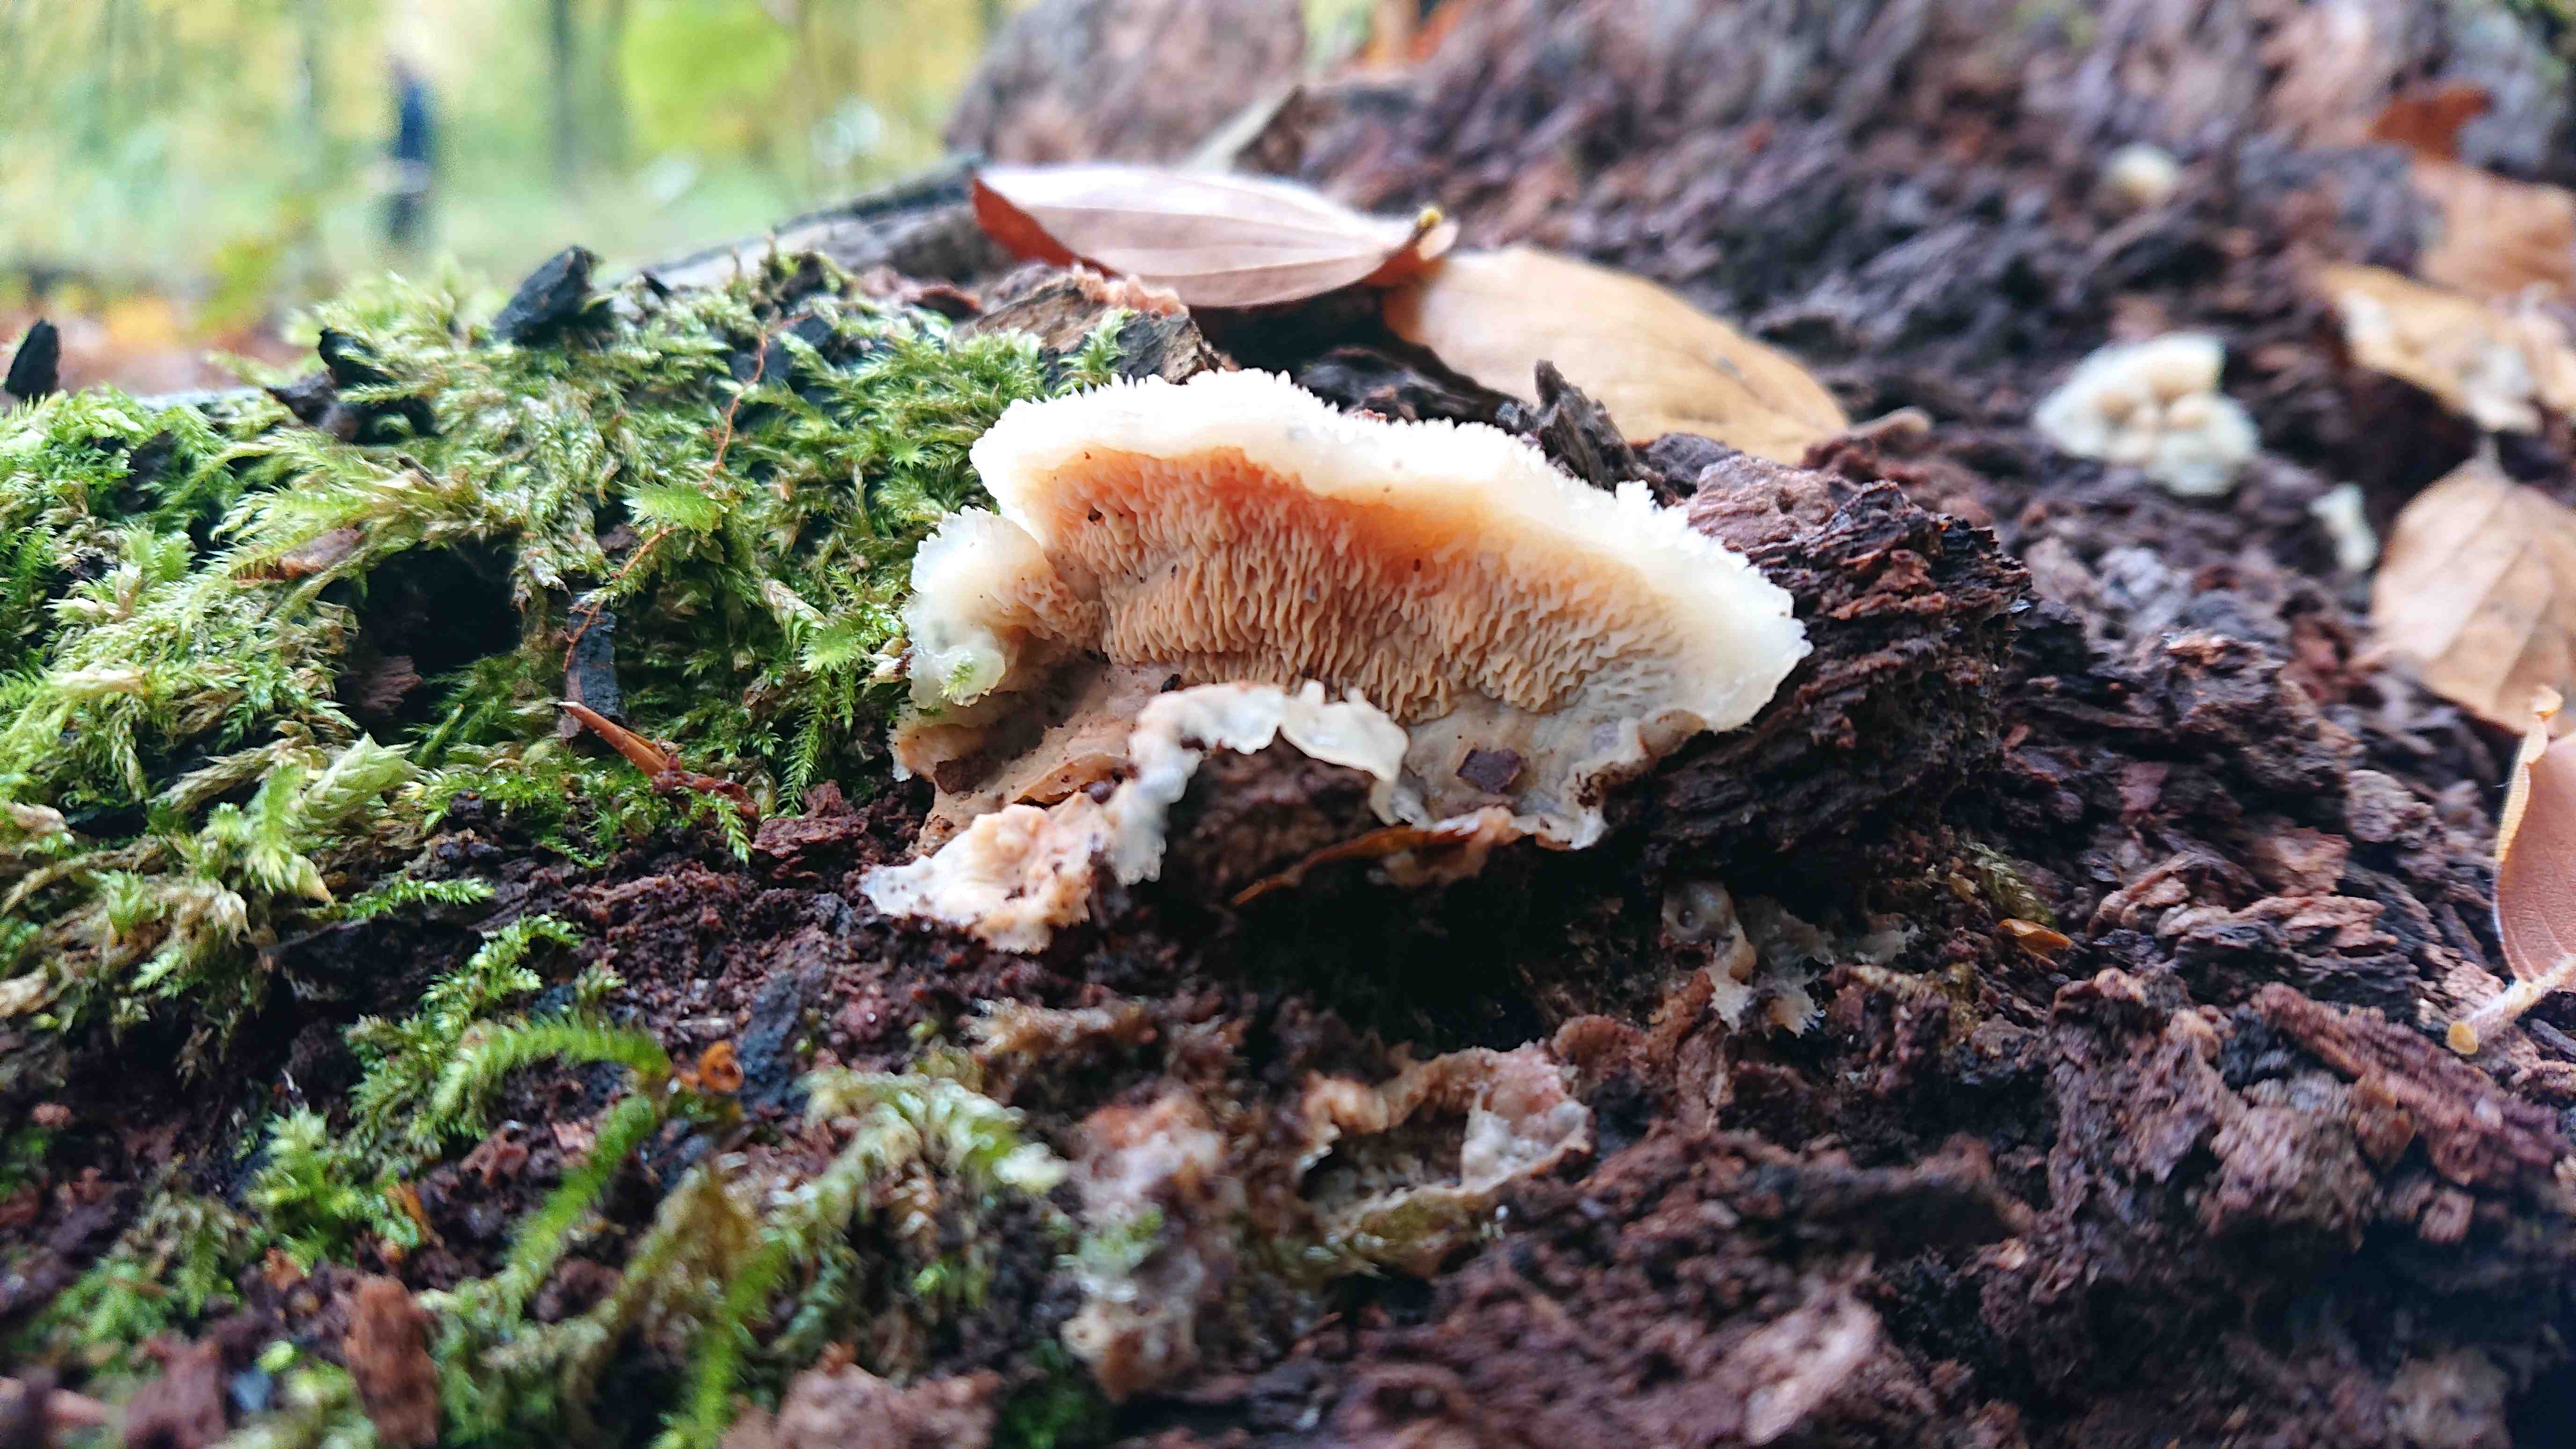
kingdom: Fungi
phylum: Basidiomycota
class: Agaricomycetes
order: Polyporales
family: Meruliaceae
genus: Phlebia
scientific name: Phlebia tremellosa
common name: bævrende åresvamp
